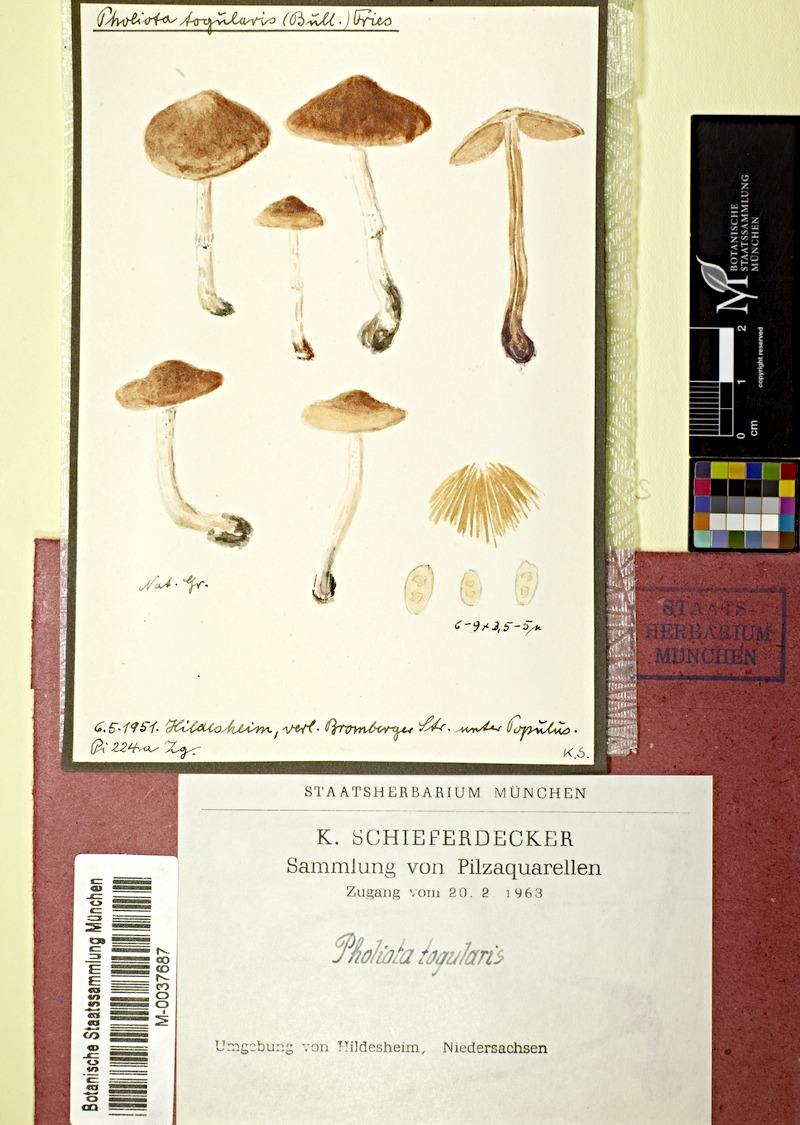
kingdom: Fungi
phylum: Basidiomycota
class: Agaricomycetes
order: Agaricales
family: Bolbitiaceae
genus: Pholiotina
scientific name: Pholiotina blattaria
